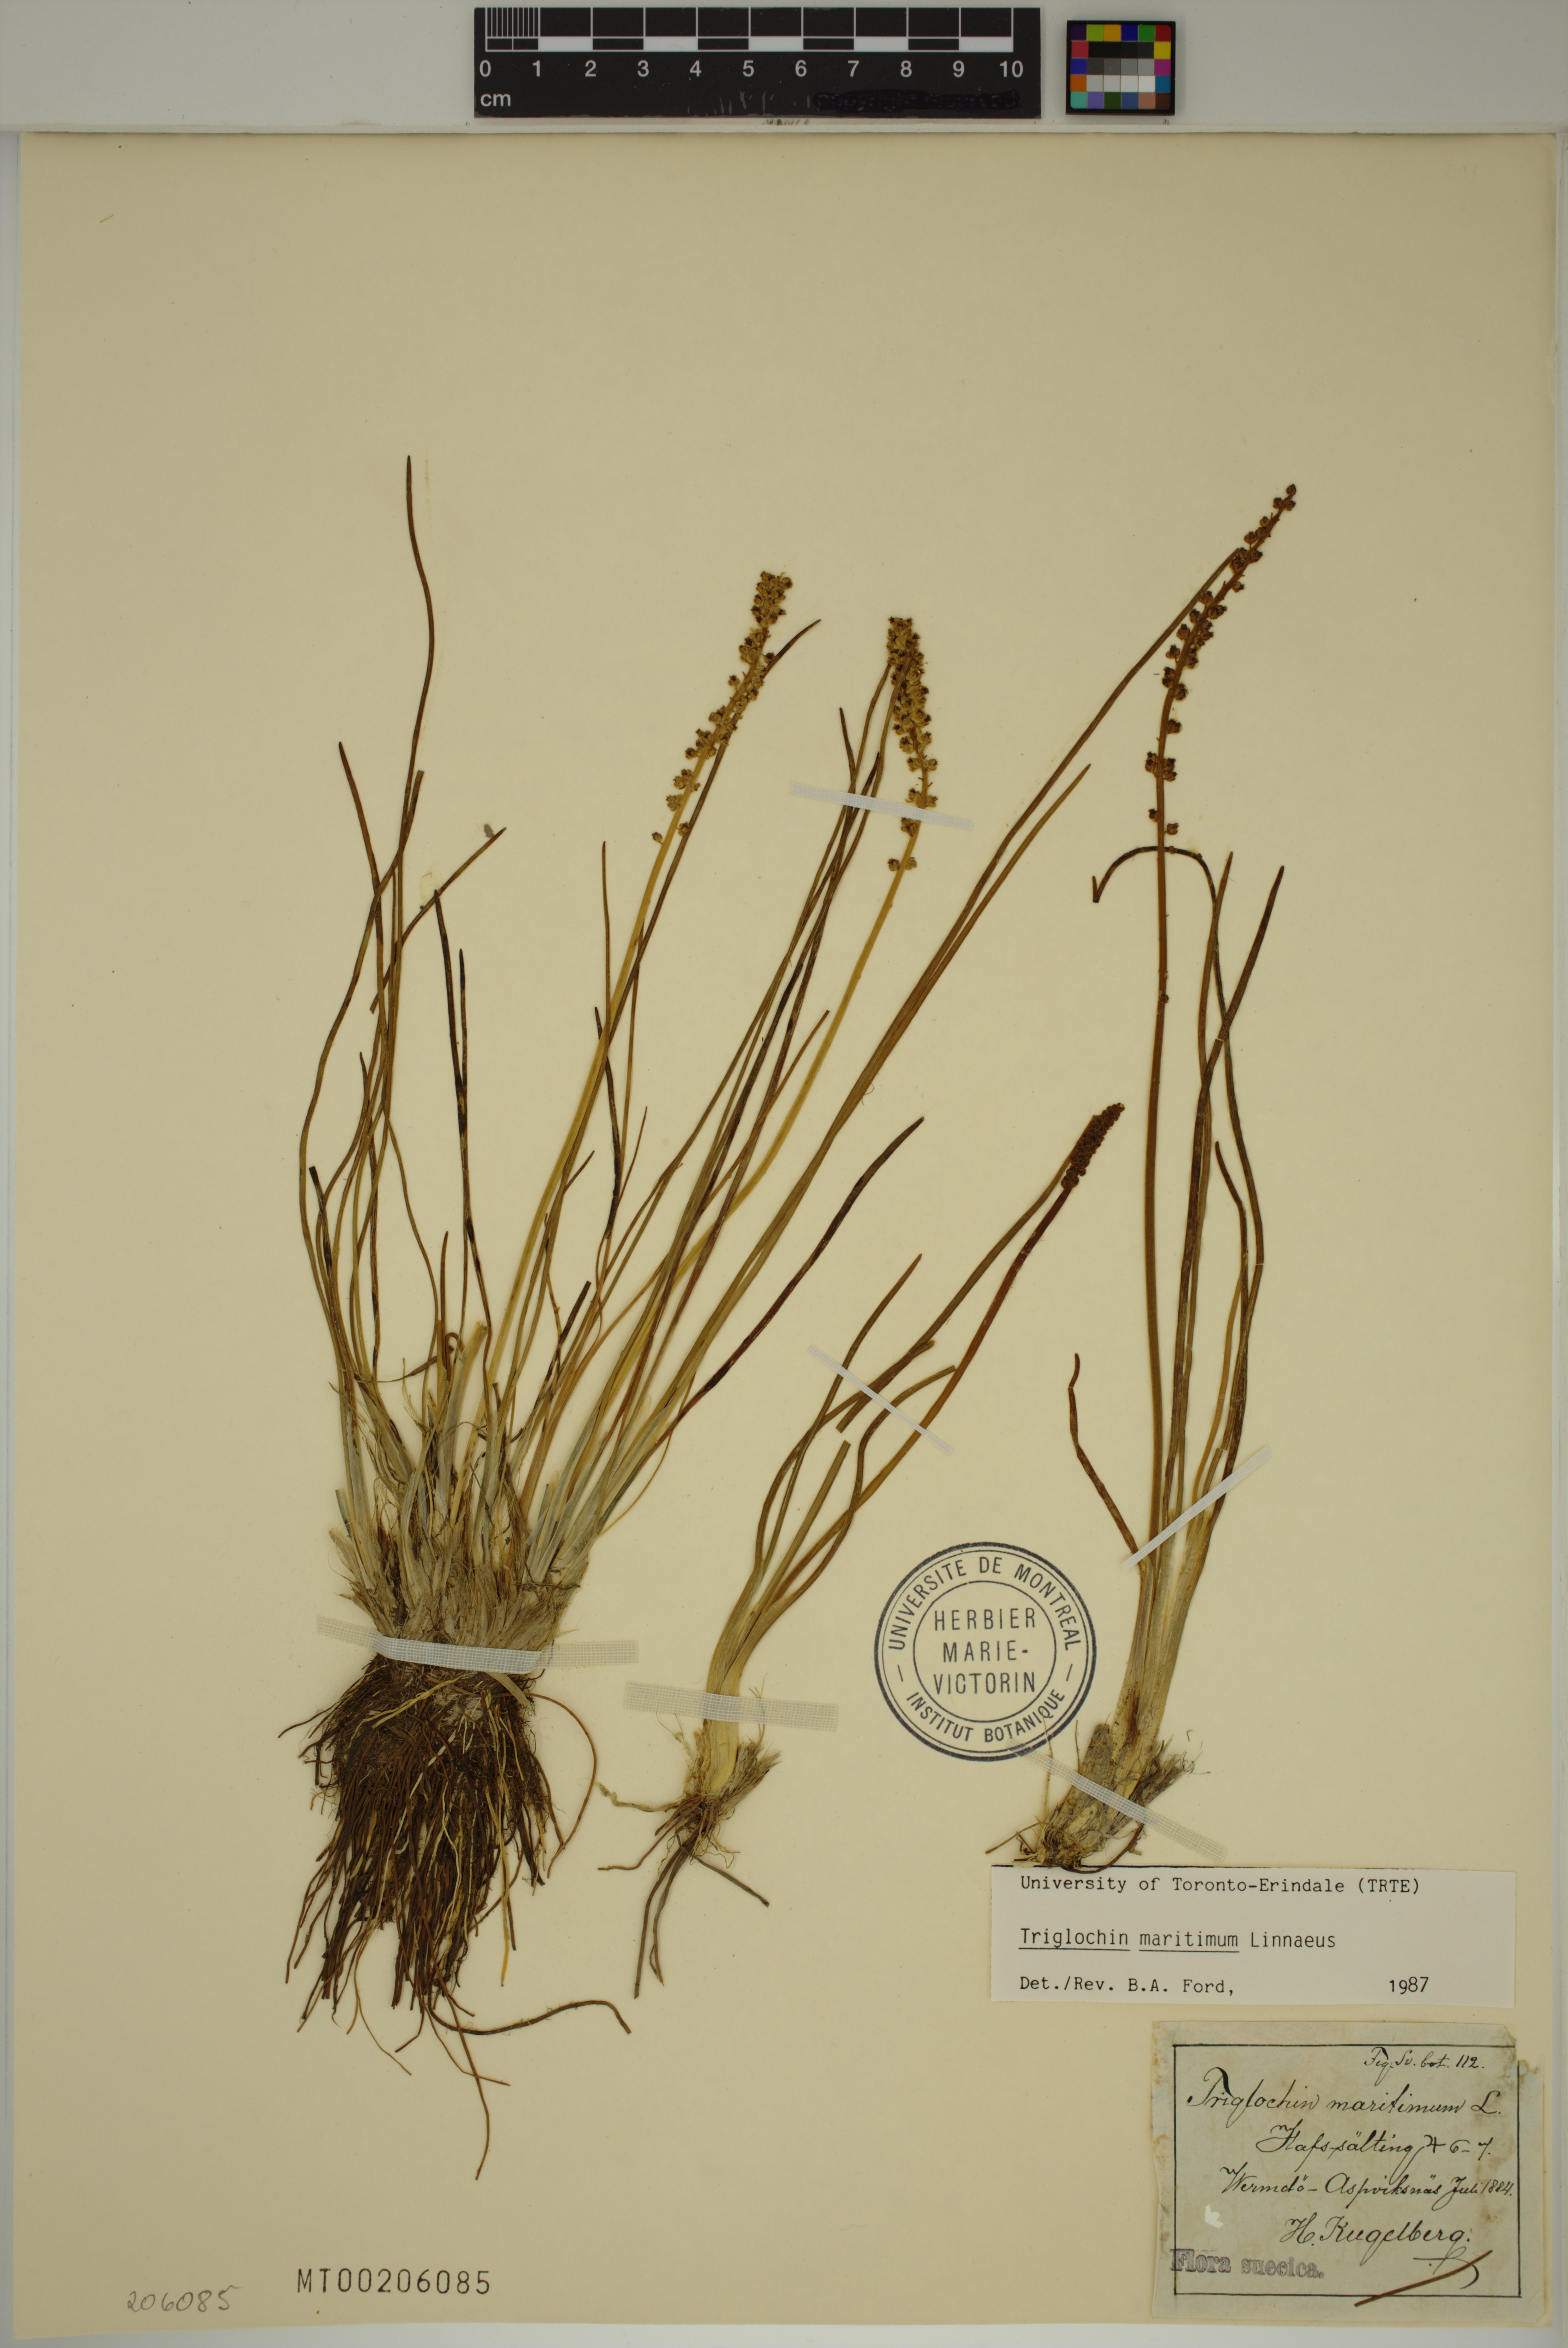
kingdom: Plantae
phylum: Tracheophyta
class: Liliopsida
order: Alismatales
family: Juncaginaceae
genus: Triglochin
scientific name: Triglochin maritima
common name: Sea arrowgrass
